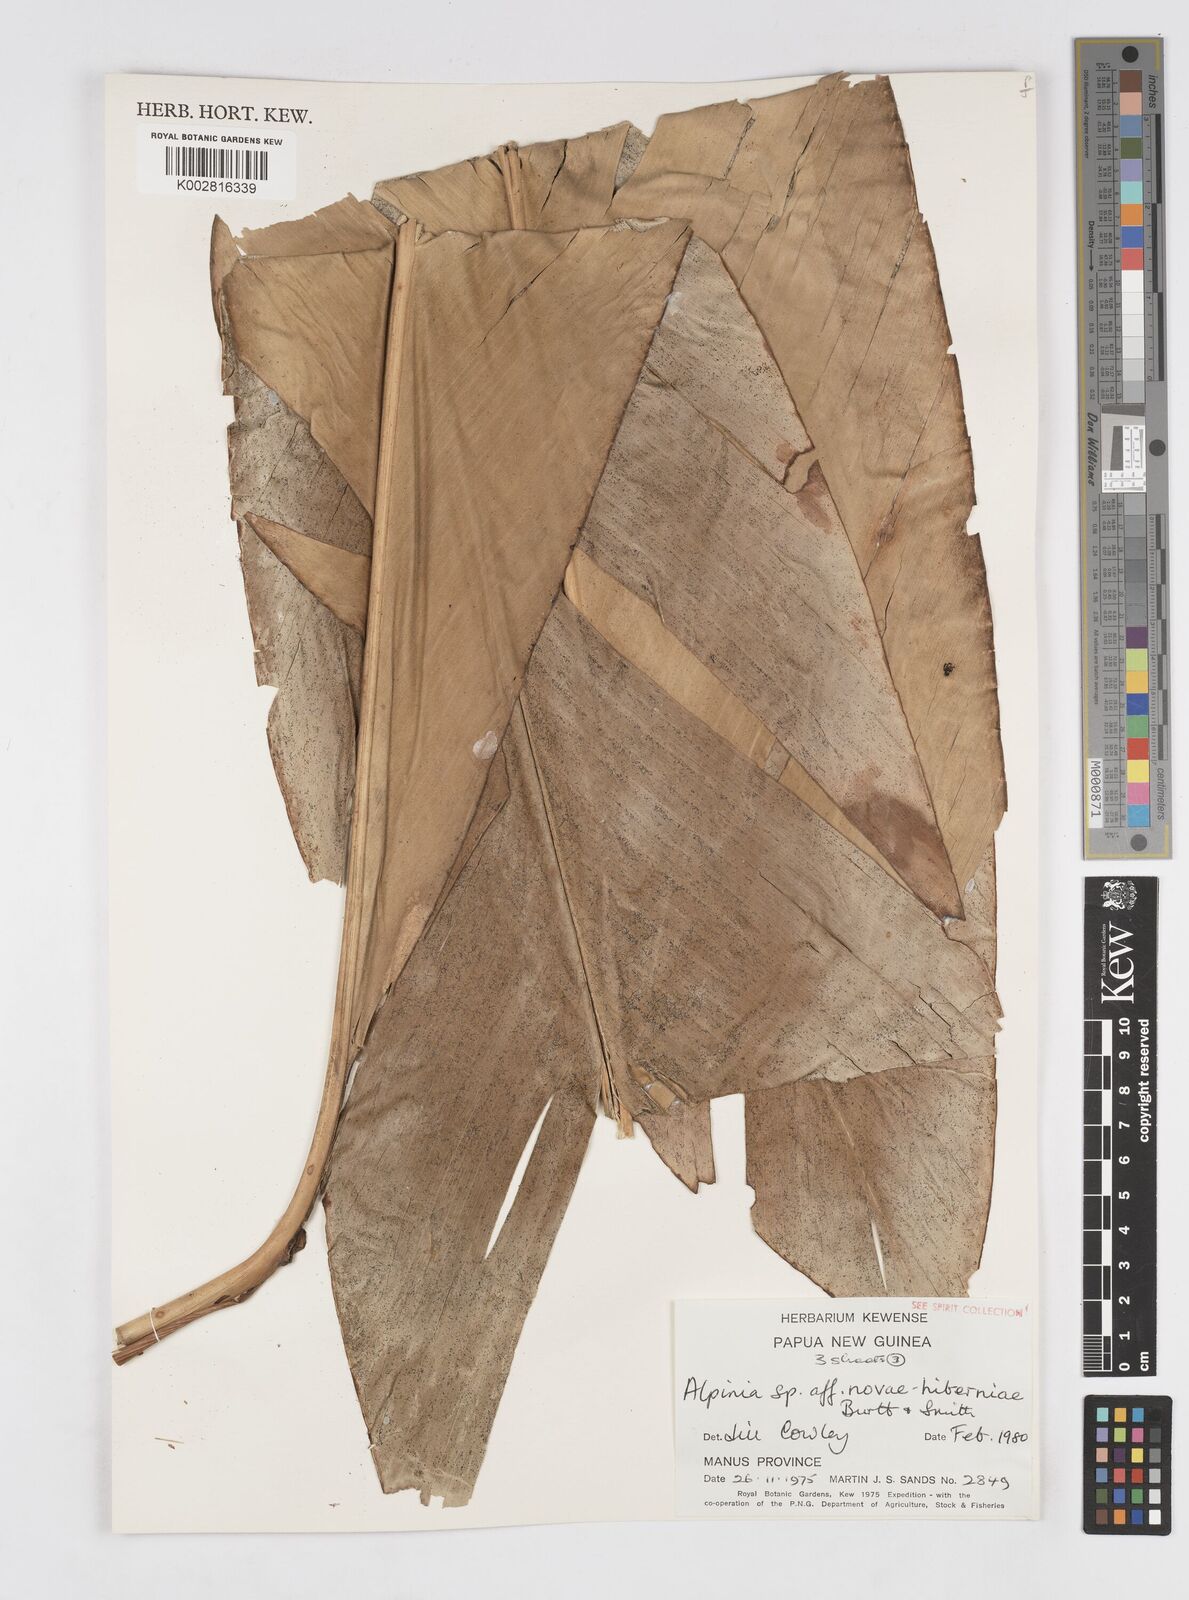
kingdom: Plantae
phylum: Tracheophyta
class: Liliopsida
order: Zingiberales
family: Zingiberaceae
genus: Alpinia
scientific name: Alpinia novae-hiberniae
